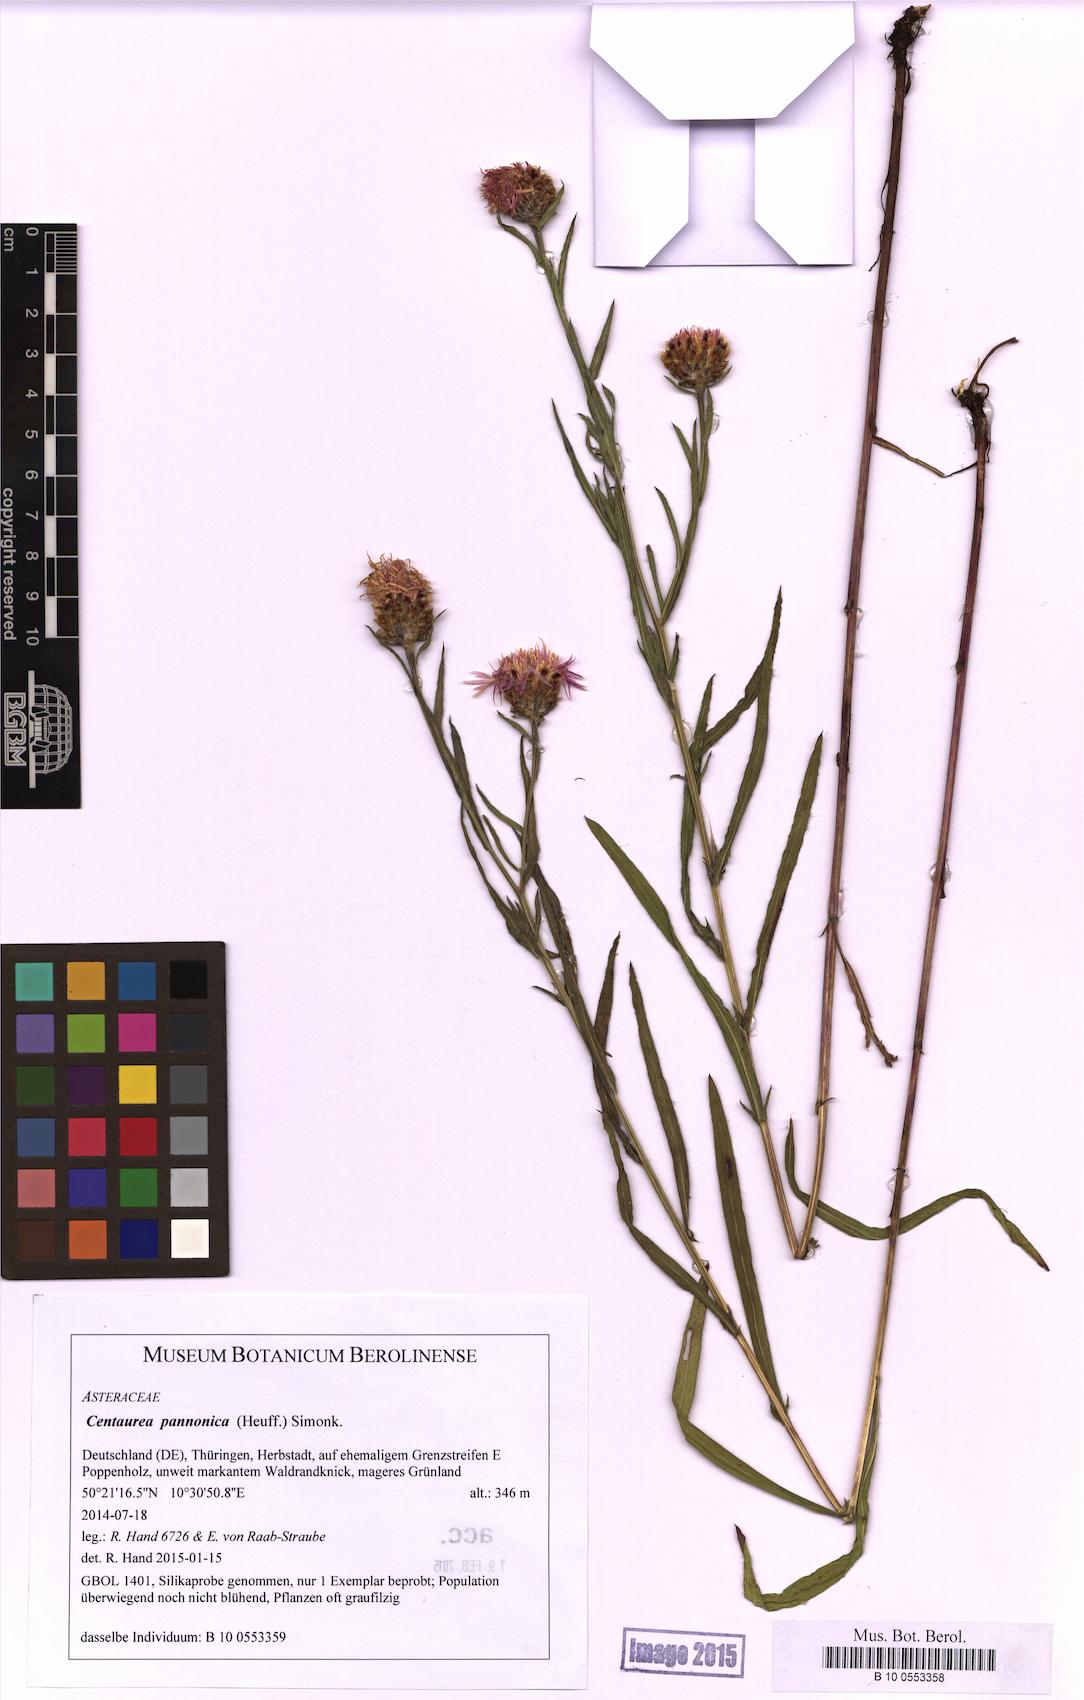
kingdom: Plantae
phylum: Tracheophyta
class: Magnoliopsida
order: Asterales
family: Asteraceae
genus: Centaurea
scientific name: Centaurea pannonica
